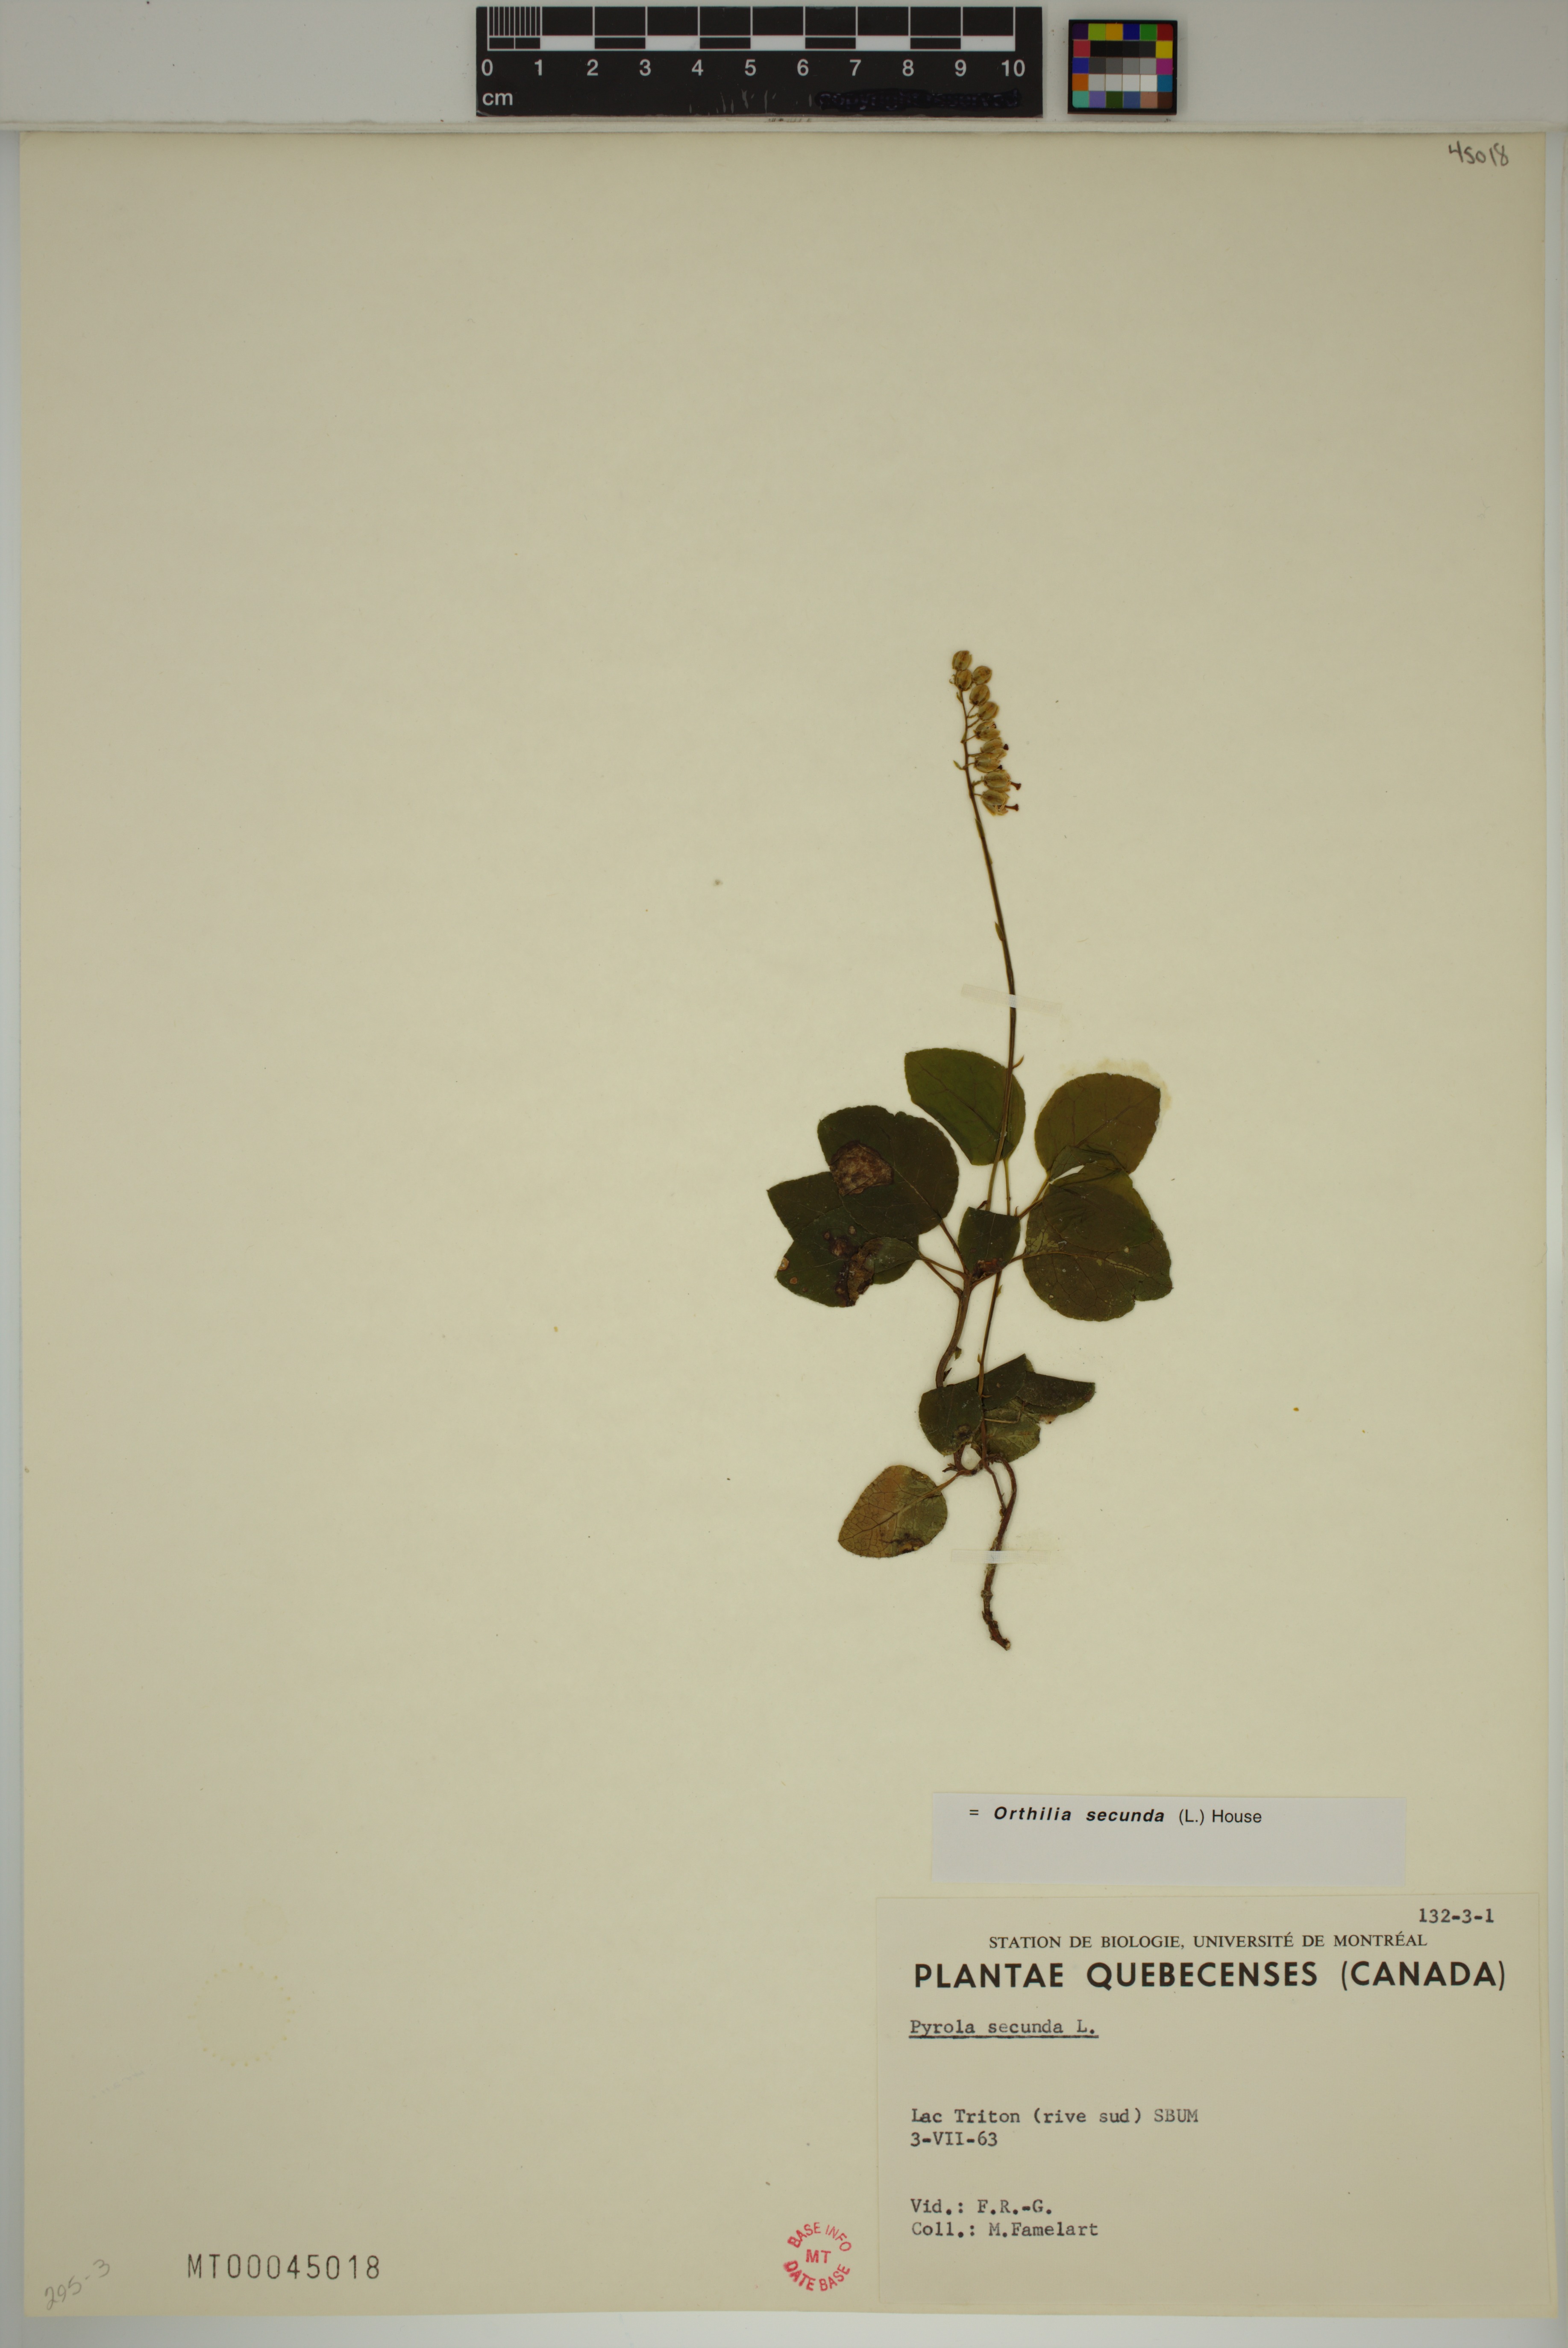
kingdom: Plantae
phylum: Tracheophyta
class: Magnoliopsida
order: Ericales
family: Ericaceae
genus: Orthilia
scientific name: Orthilia secunda
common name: One-sided orthilia
